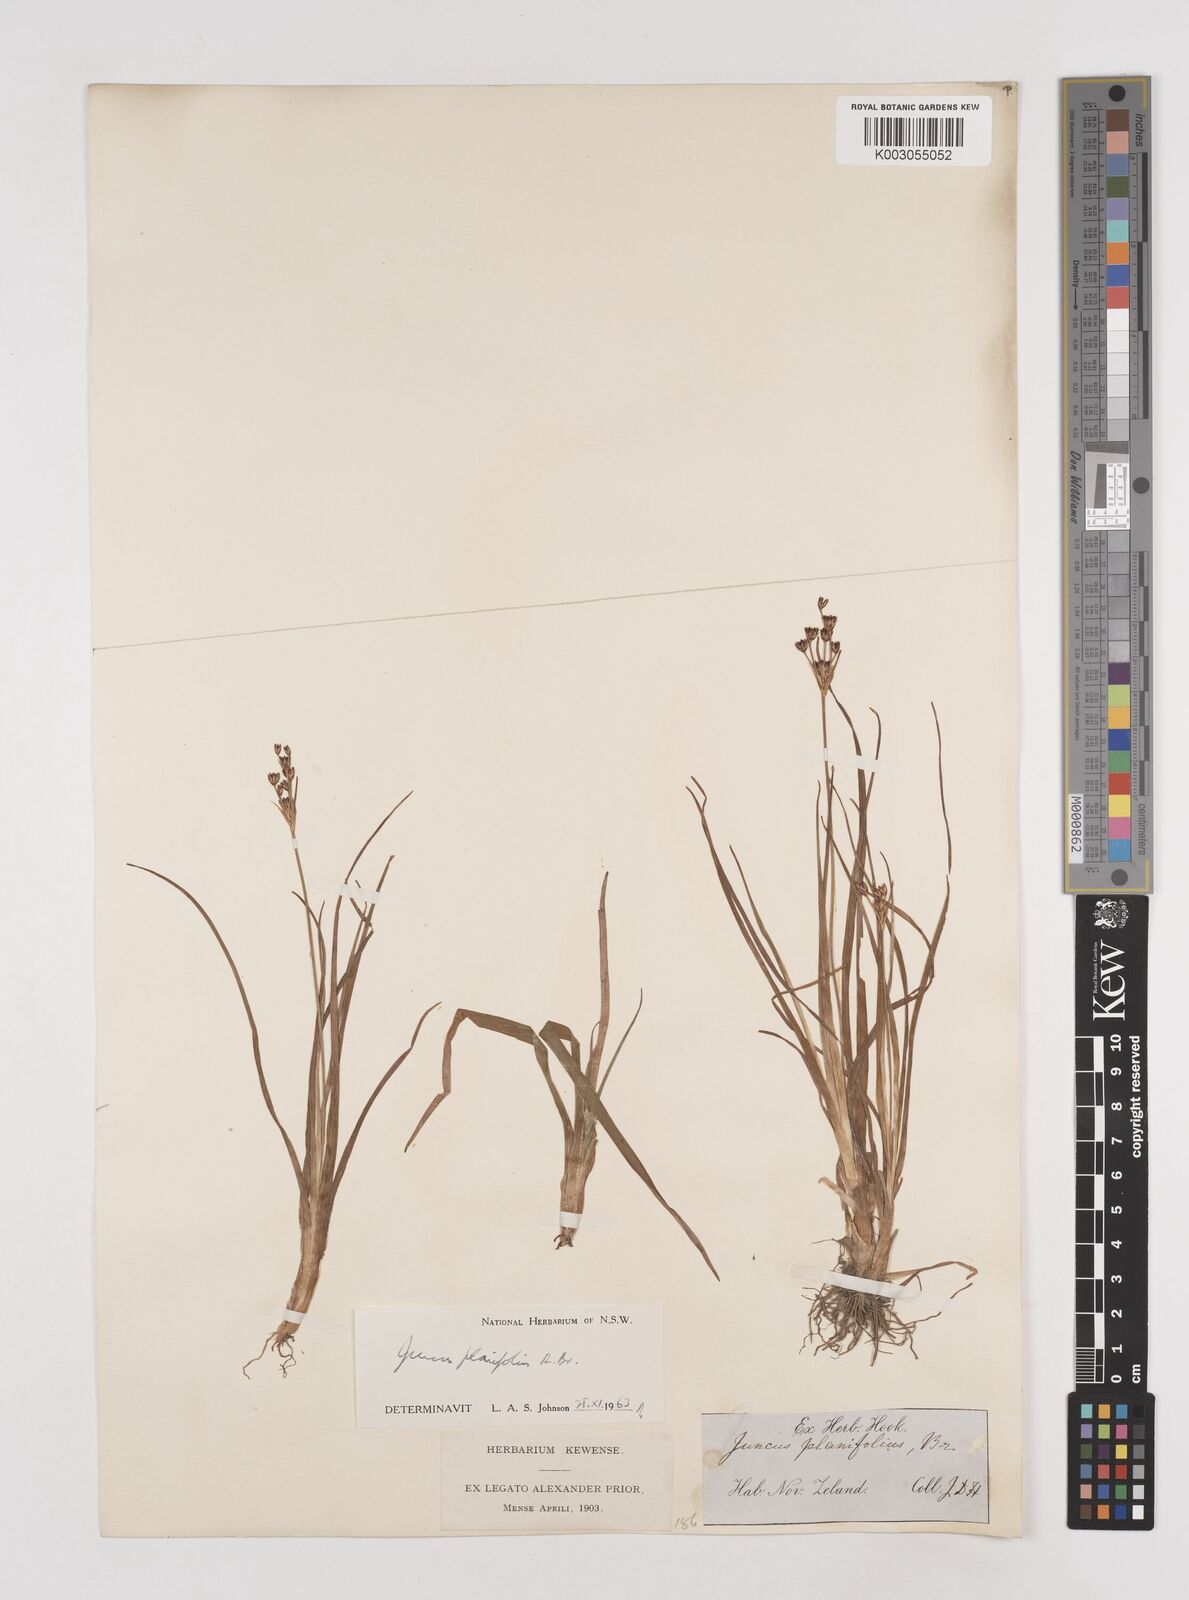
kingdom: Plantae
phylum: Tracheophyta
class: Liliopsida
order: Poales
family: Juncaceae
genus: Juncus
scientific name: Juncus planifolius
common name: Broadleaf rush
